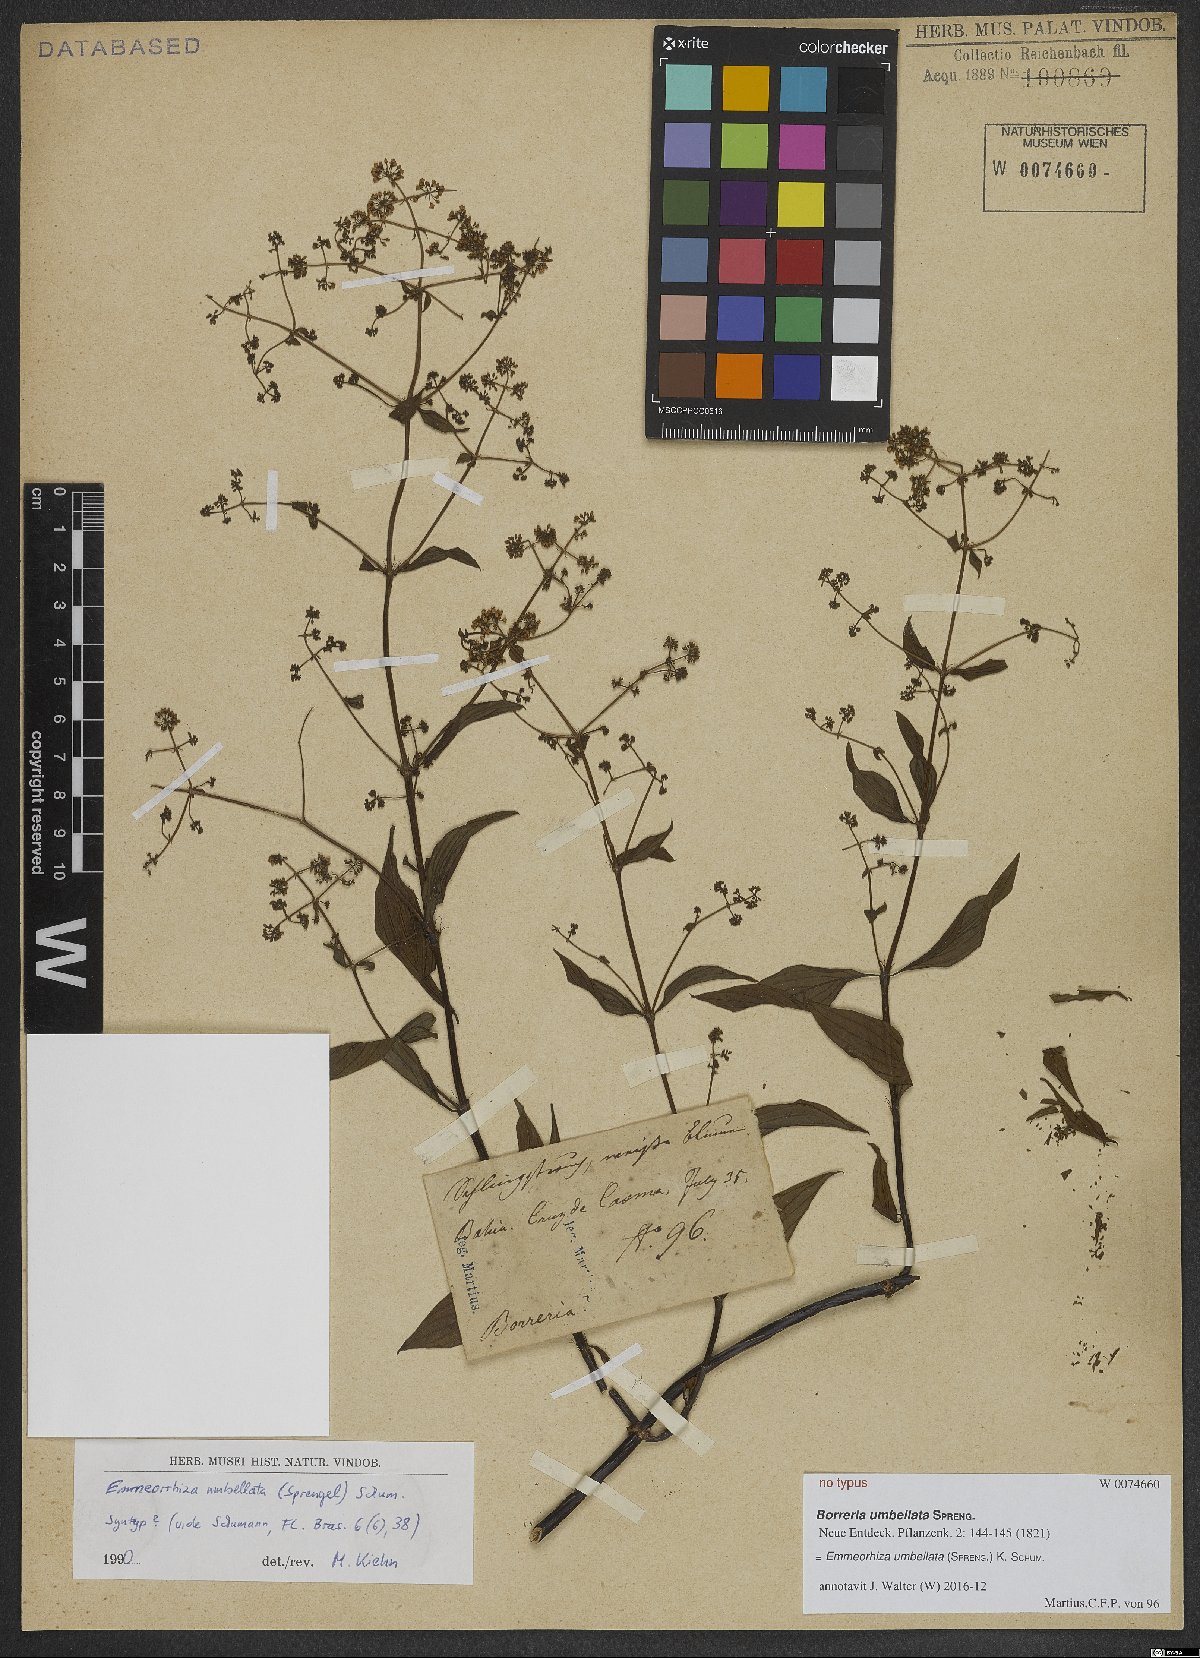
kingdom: Plantae
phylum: Tracheophyta
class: Magnoliopsida
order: Gentianales
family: Rubiaceae
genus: Emmeorhiza
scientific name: Emmeorhiza umbellata
